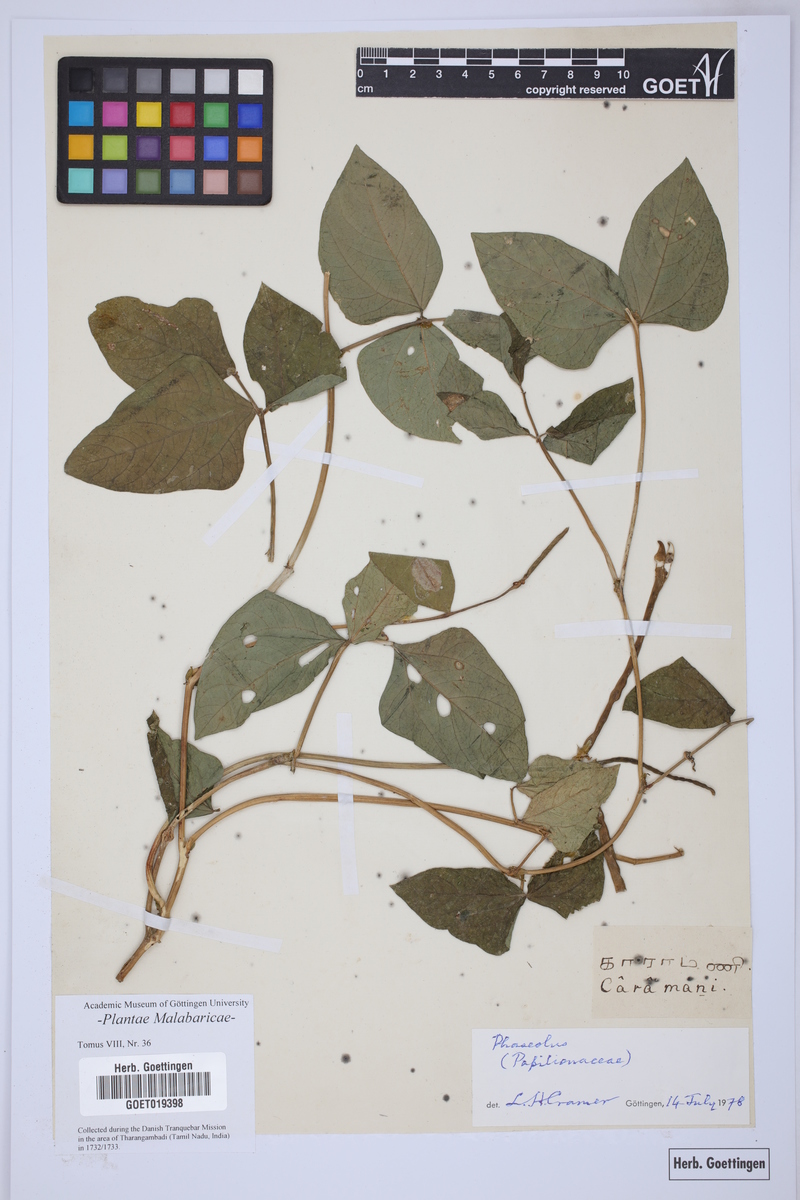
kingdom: Plantae
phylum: Tracheophyta
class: Magnoliopsida
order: Fabales
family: Fabaceae
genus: Phaseolus
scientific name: Phaseolus
